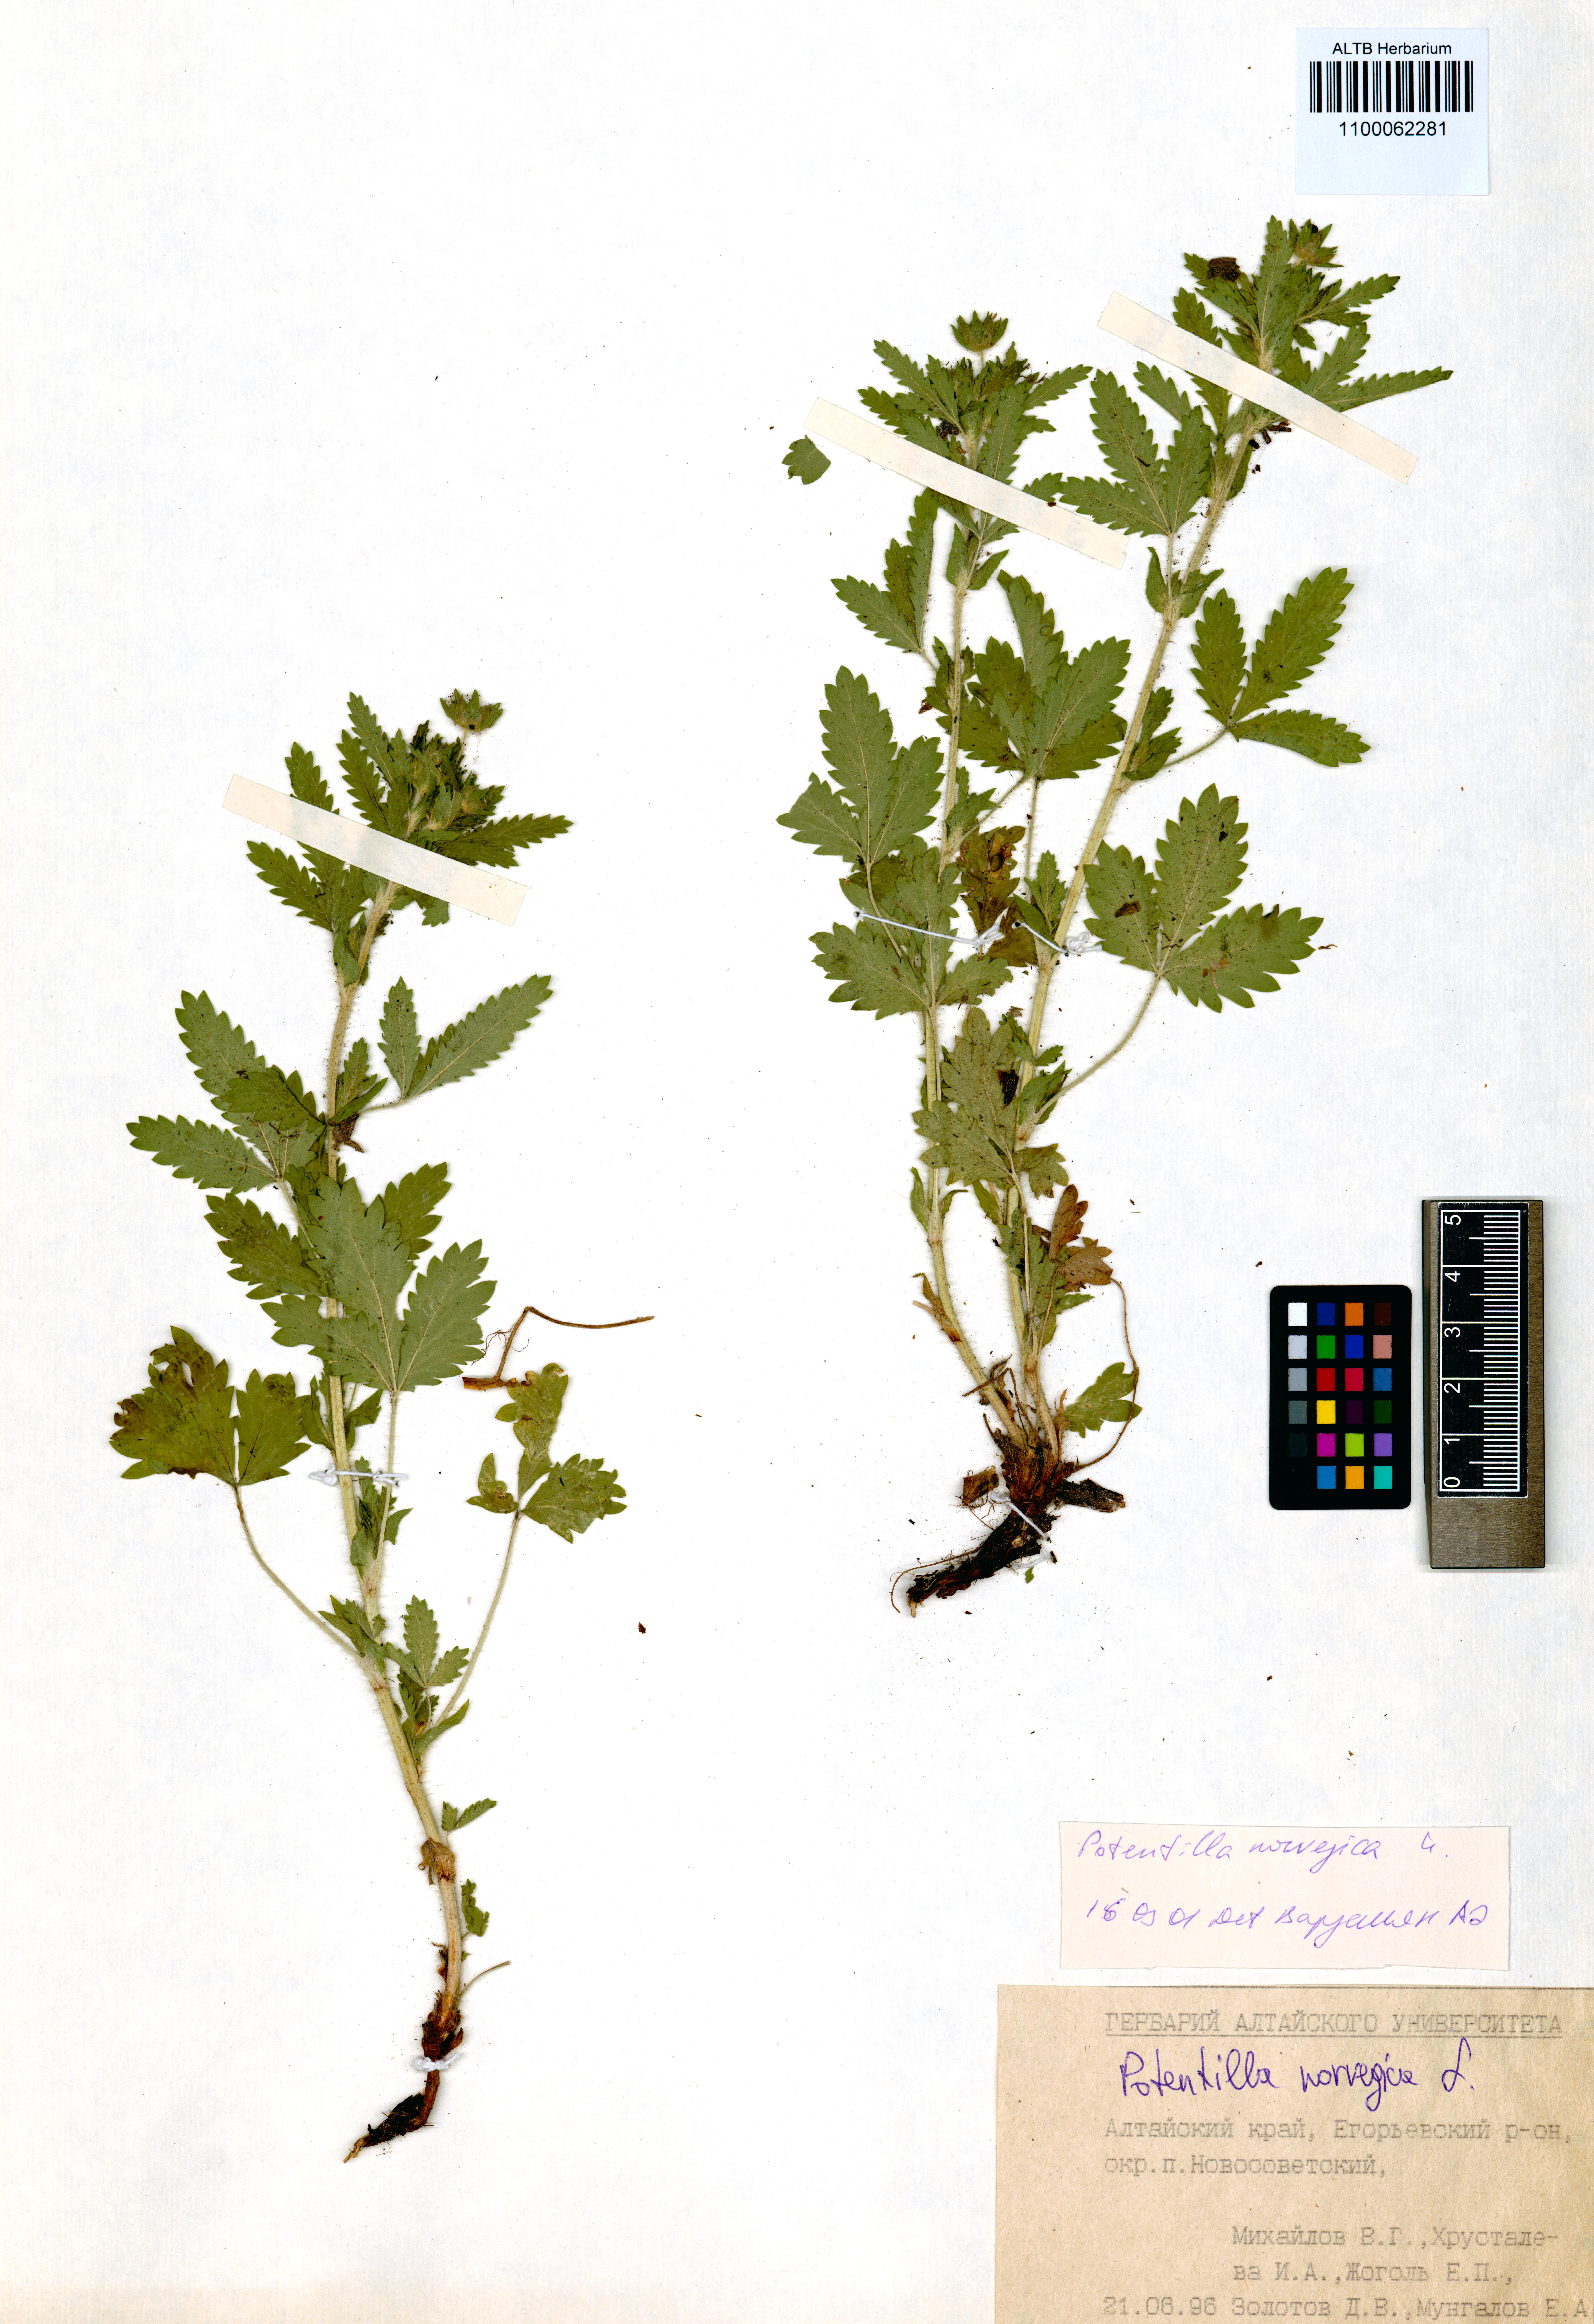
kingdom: Plantae
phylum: Tracheophyta
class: Magnoliopsida
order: Rosales
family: Rosaceae
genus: Potentilla
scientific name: Potentilla norvegica
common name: Ternate-leaved cinquefoil
